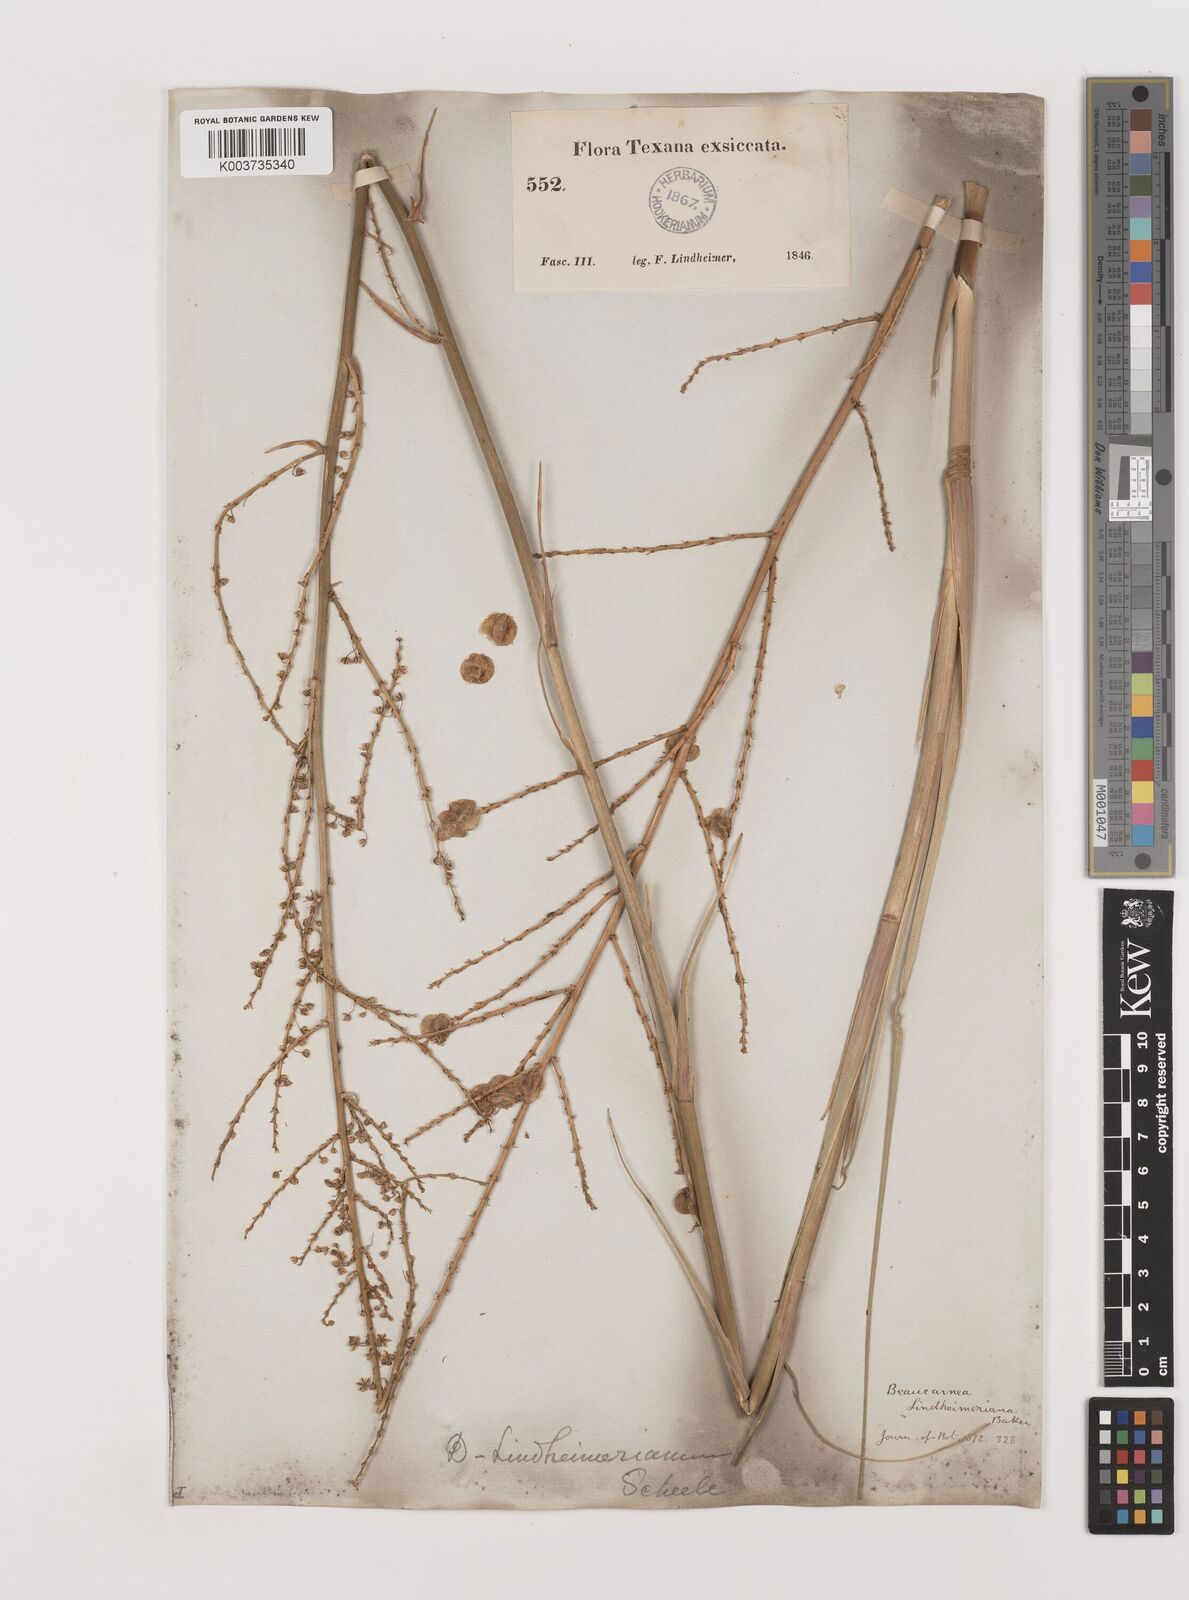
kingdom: Plantae
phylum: Tracheophyta
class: Liliopsida
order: Asparagales
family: Asparagaceae
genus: Nolina
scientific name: Nolina lindheimeriana
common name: Lindheimer's bear-grass
